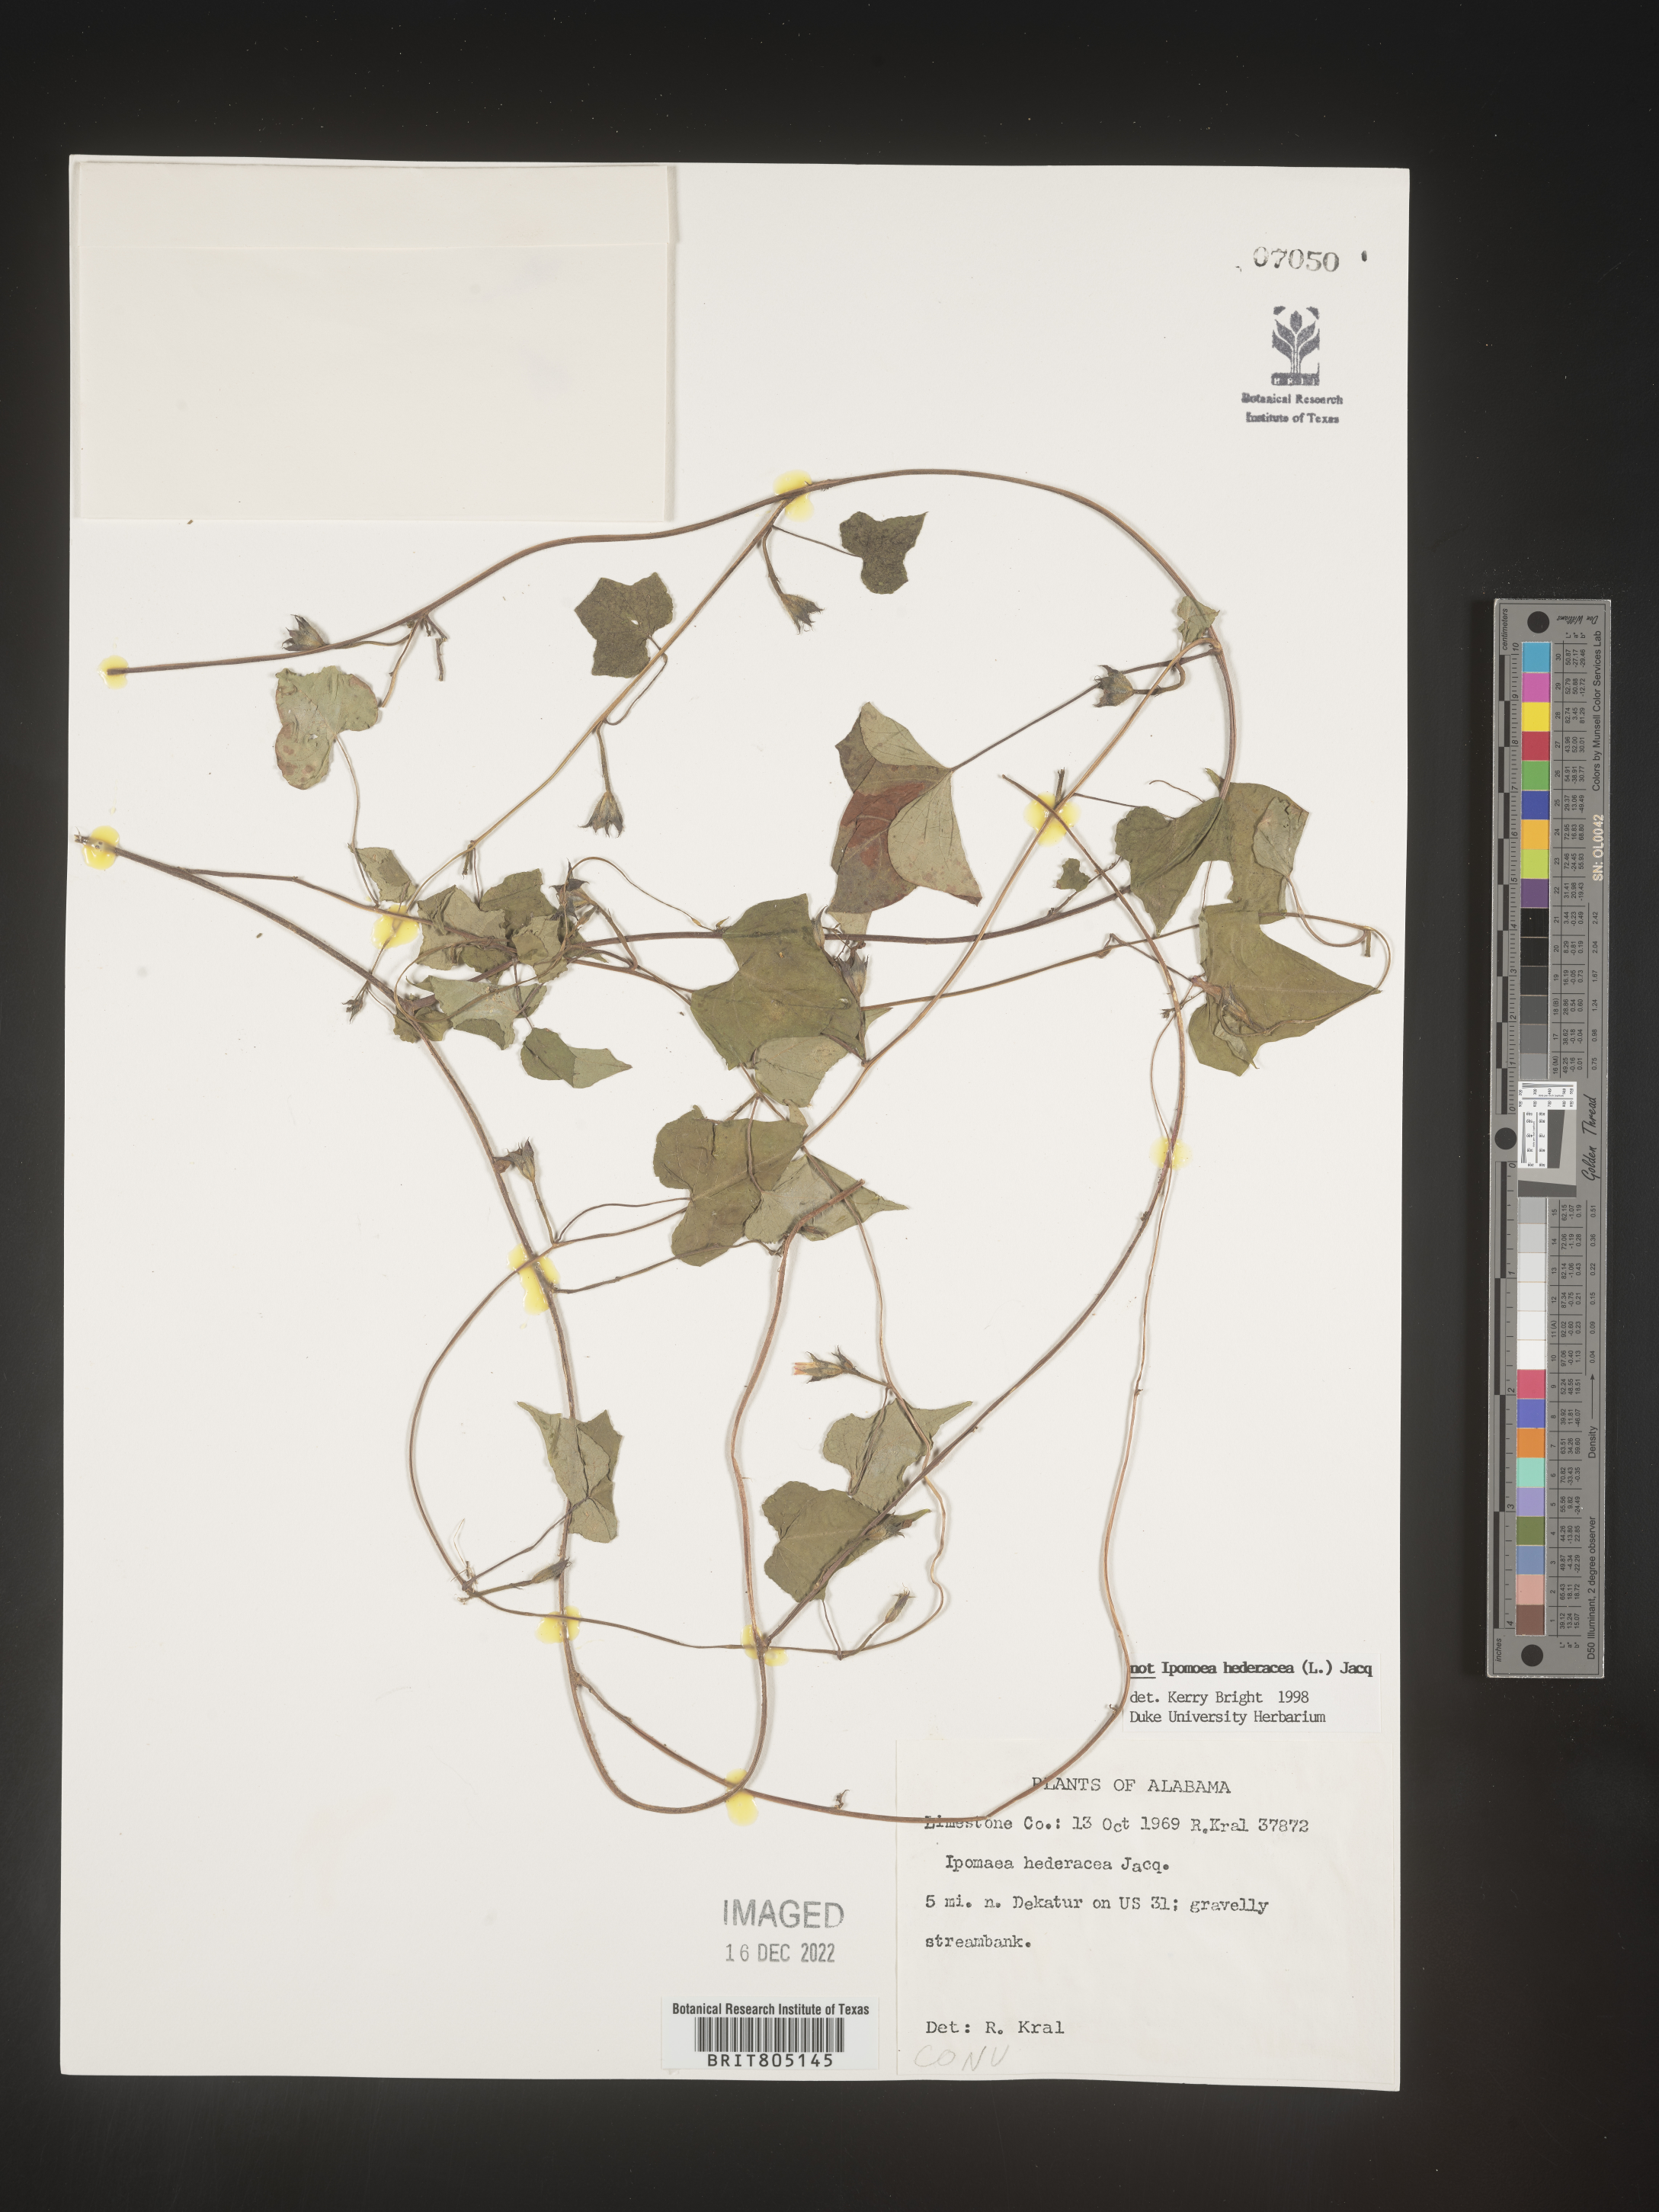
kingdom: Plantae
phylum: Tracheophyta
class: Magnoliopsida
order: Solanales
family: Convolvulaceae
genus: Ipomoea
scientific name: Ipomoea
